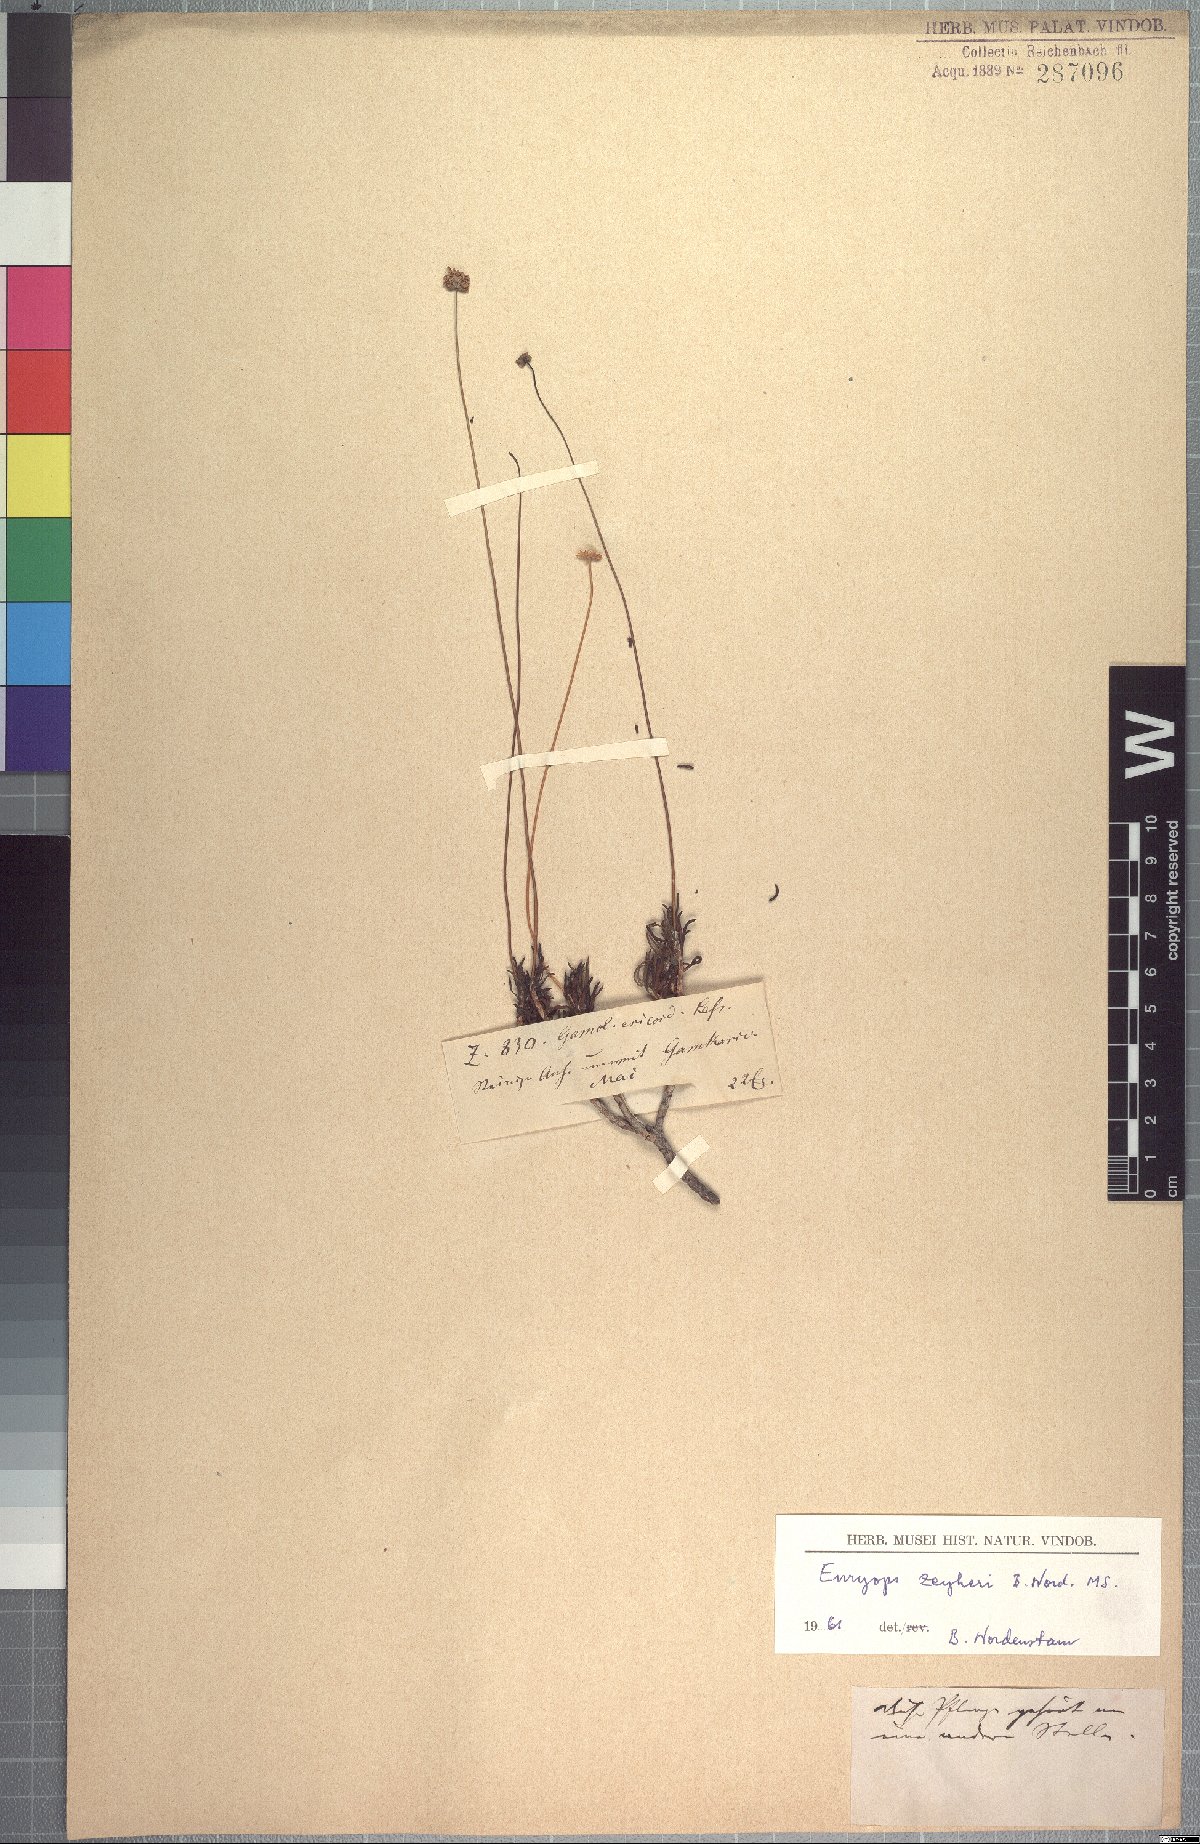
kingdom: Plantae
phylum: Tracheophyta
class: Magnoliopsida
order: Asterales
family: Asteraceae
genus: Euryops
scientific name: Euryops zeyheri
